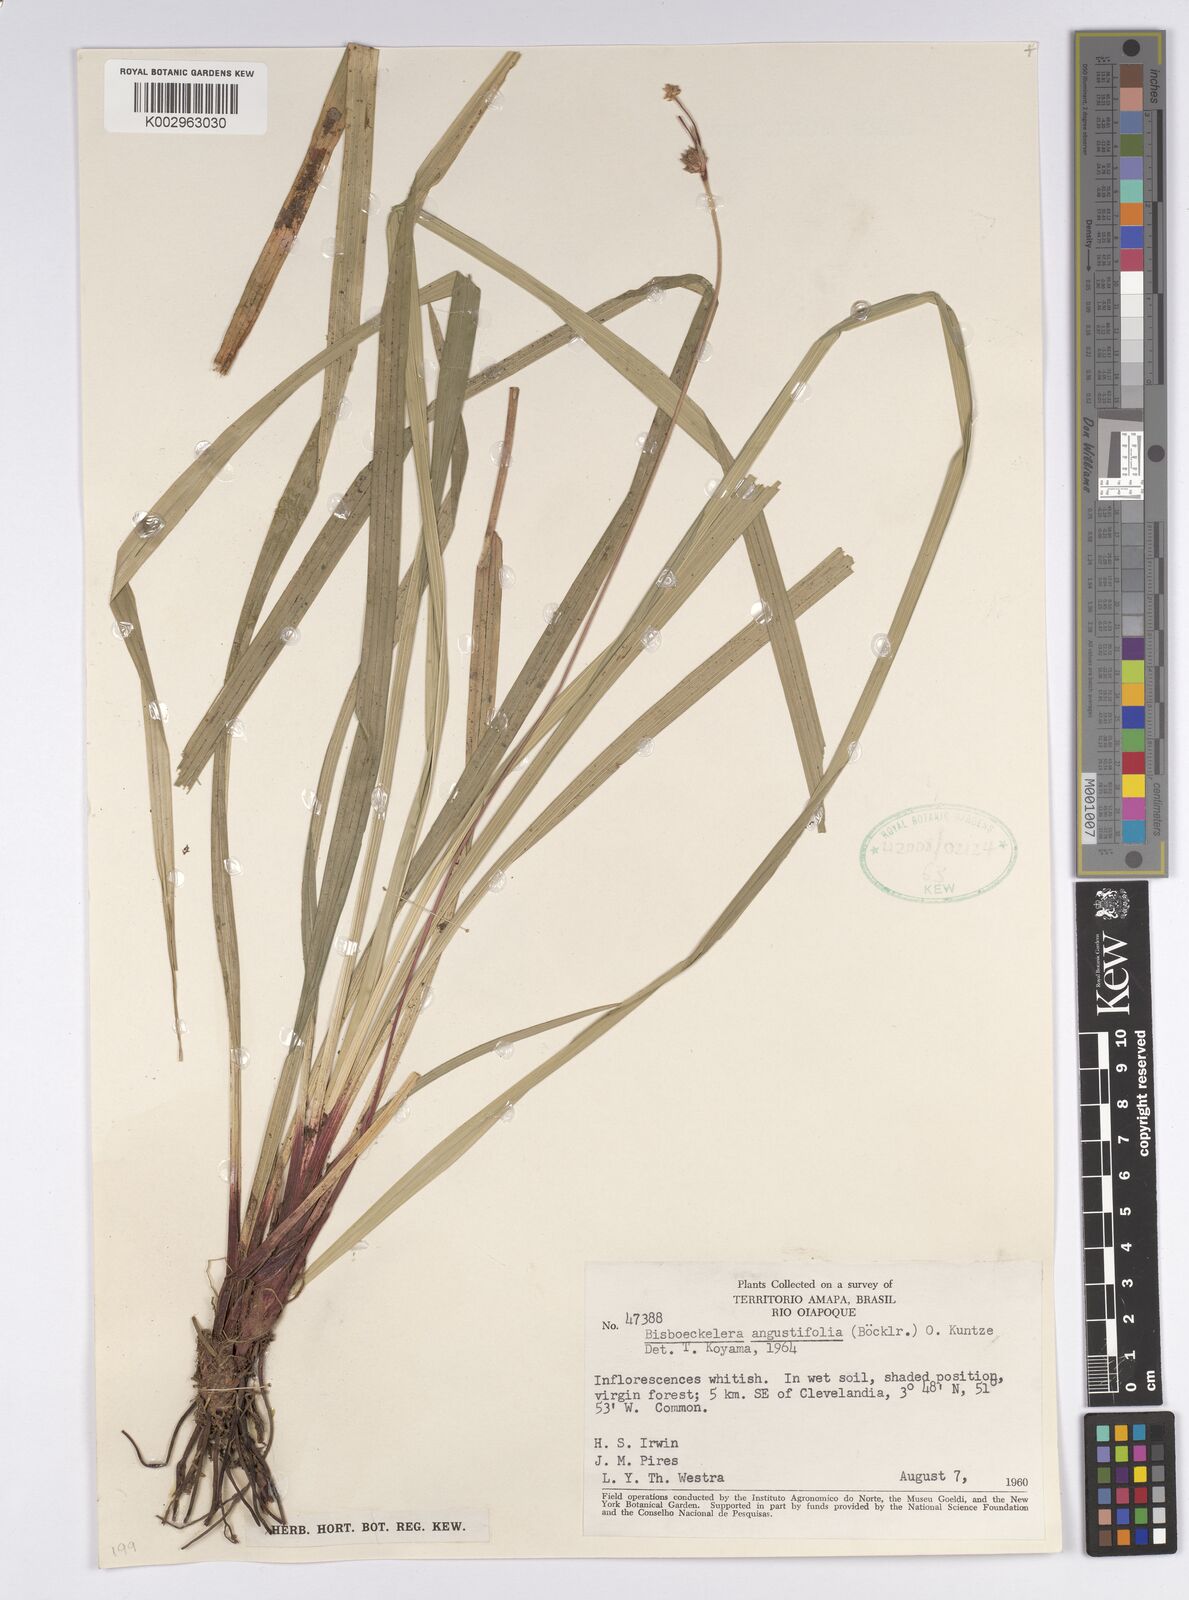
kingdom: Plantae
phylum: Tracheophyta
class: Liliopsida
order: Poales
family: Cyperaceae
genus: Bisboeckelera
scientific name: Bisboeckelera longifolia
